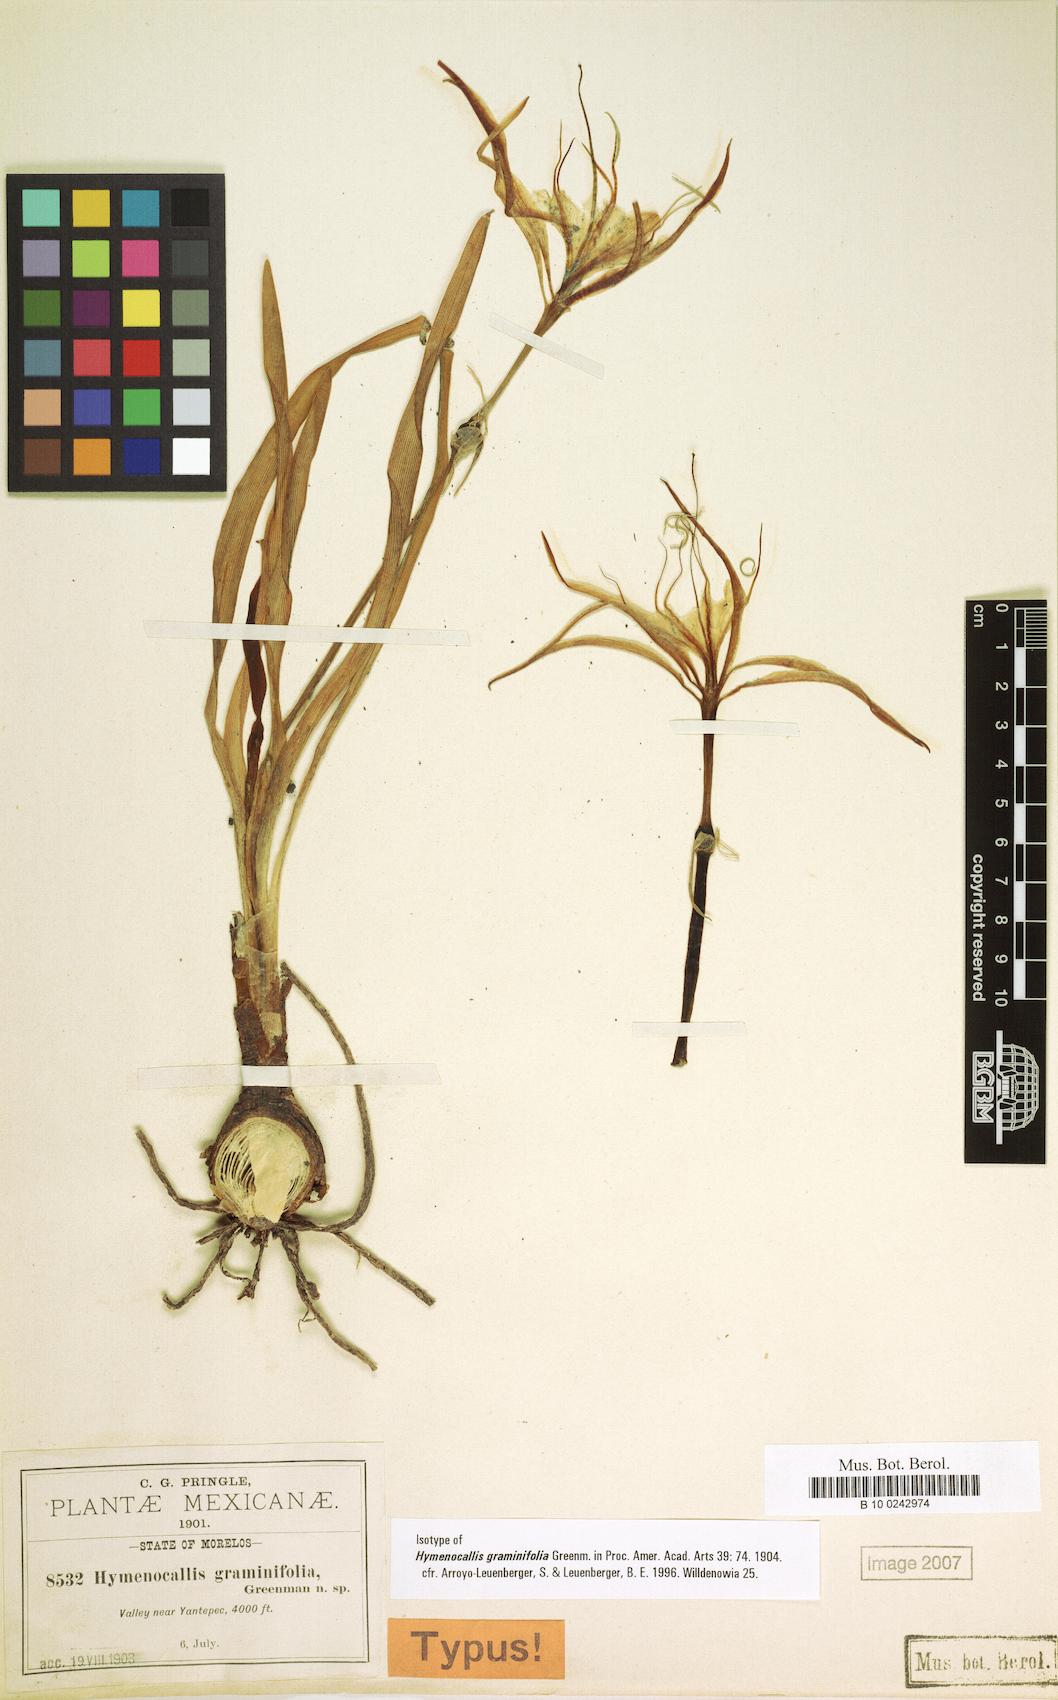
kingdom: Plantae
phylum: Tracheophyta
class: Liliopsida
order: Asparagales
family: Amaryllidaceae
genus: Hymenocallis
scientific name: Hymenocallis graminifolia
